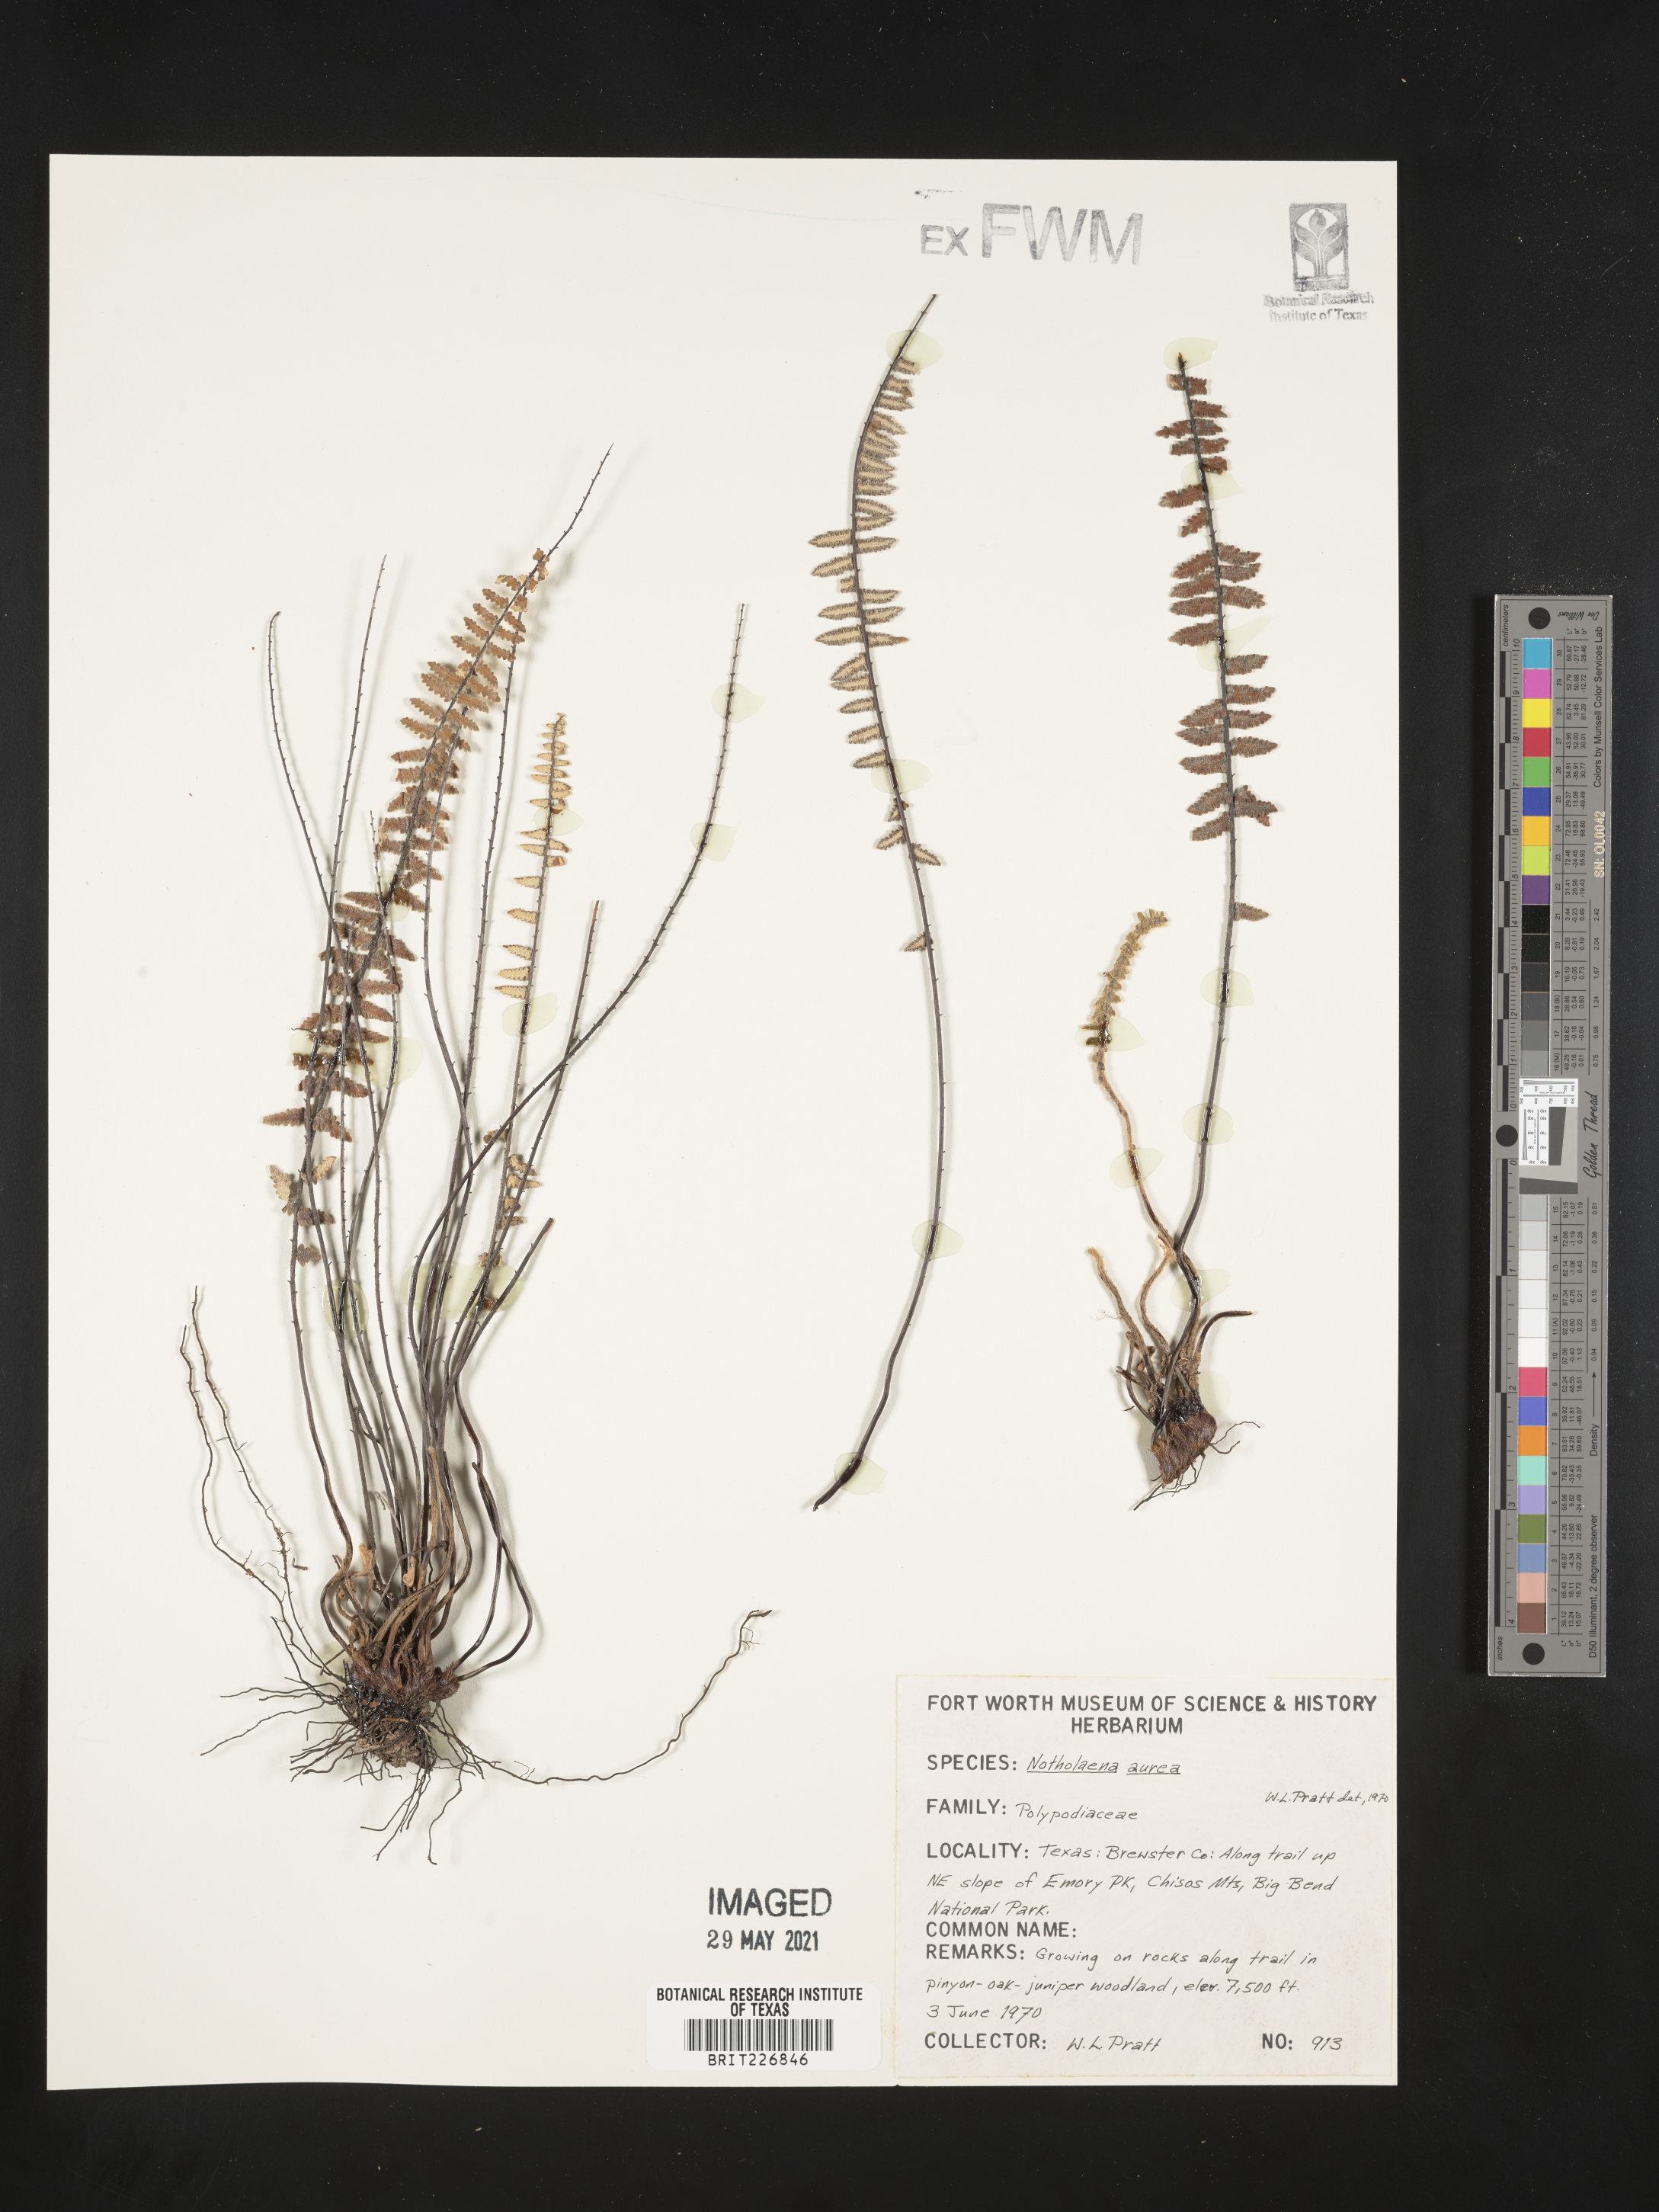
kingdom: Plantae
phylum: Tracheophyta
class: Polypodiopsida
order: Polypodiales
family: Pteridaceae
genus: Myriopteris
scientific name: Myriopteris aurea
